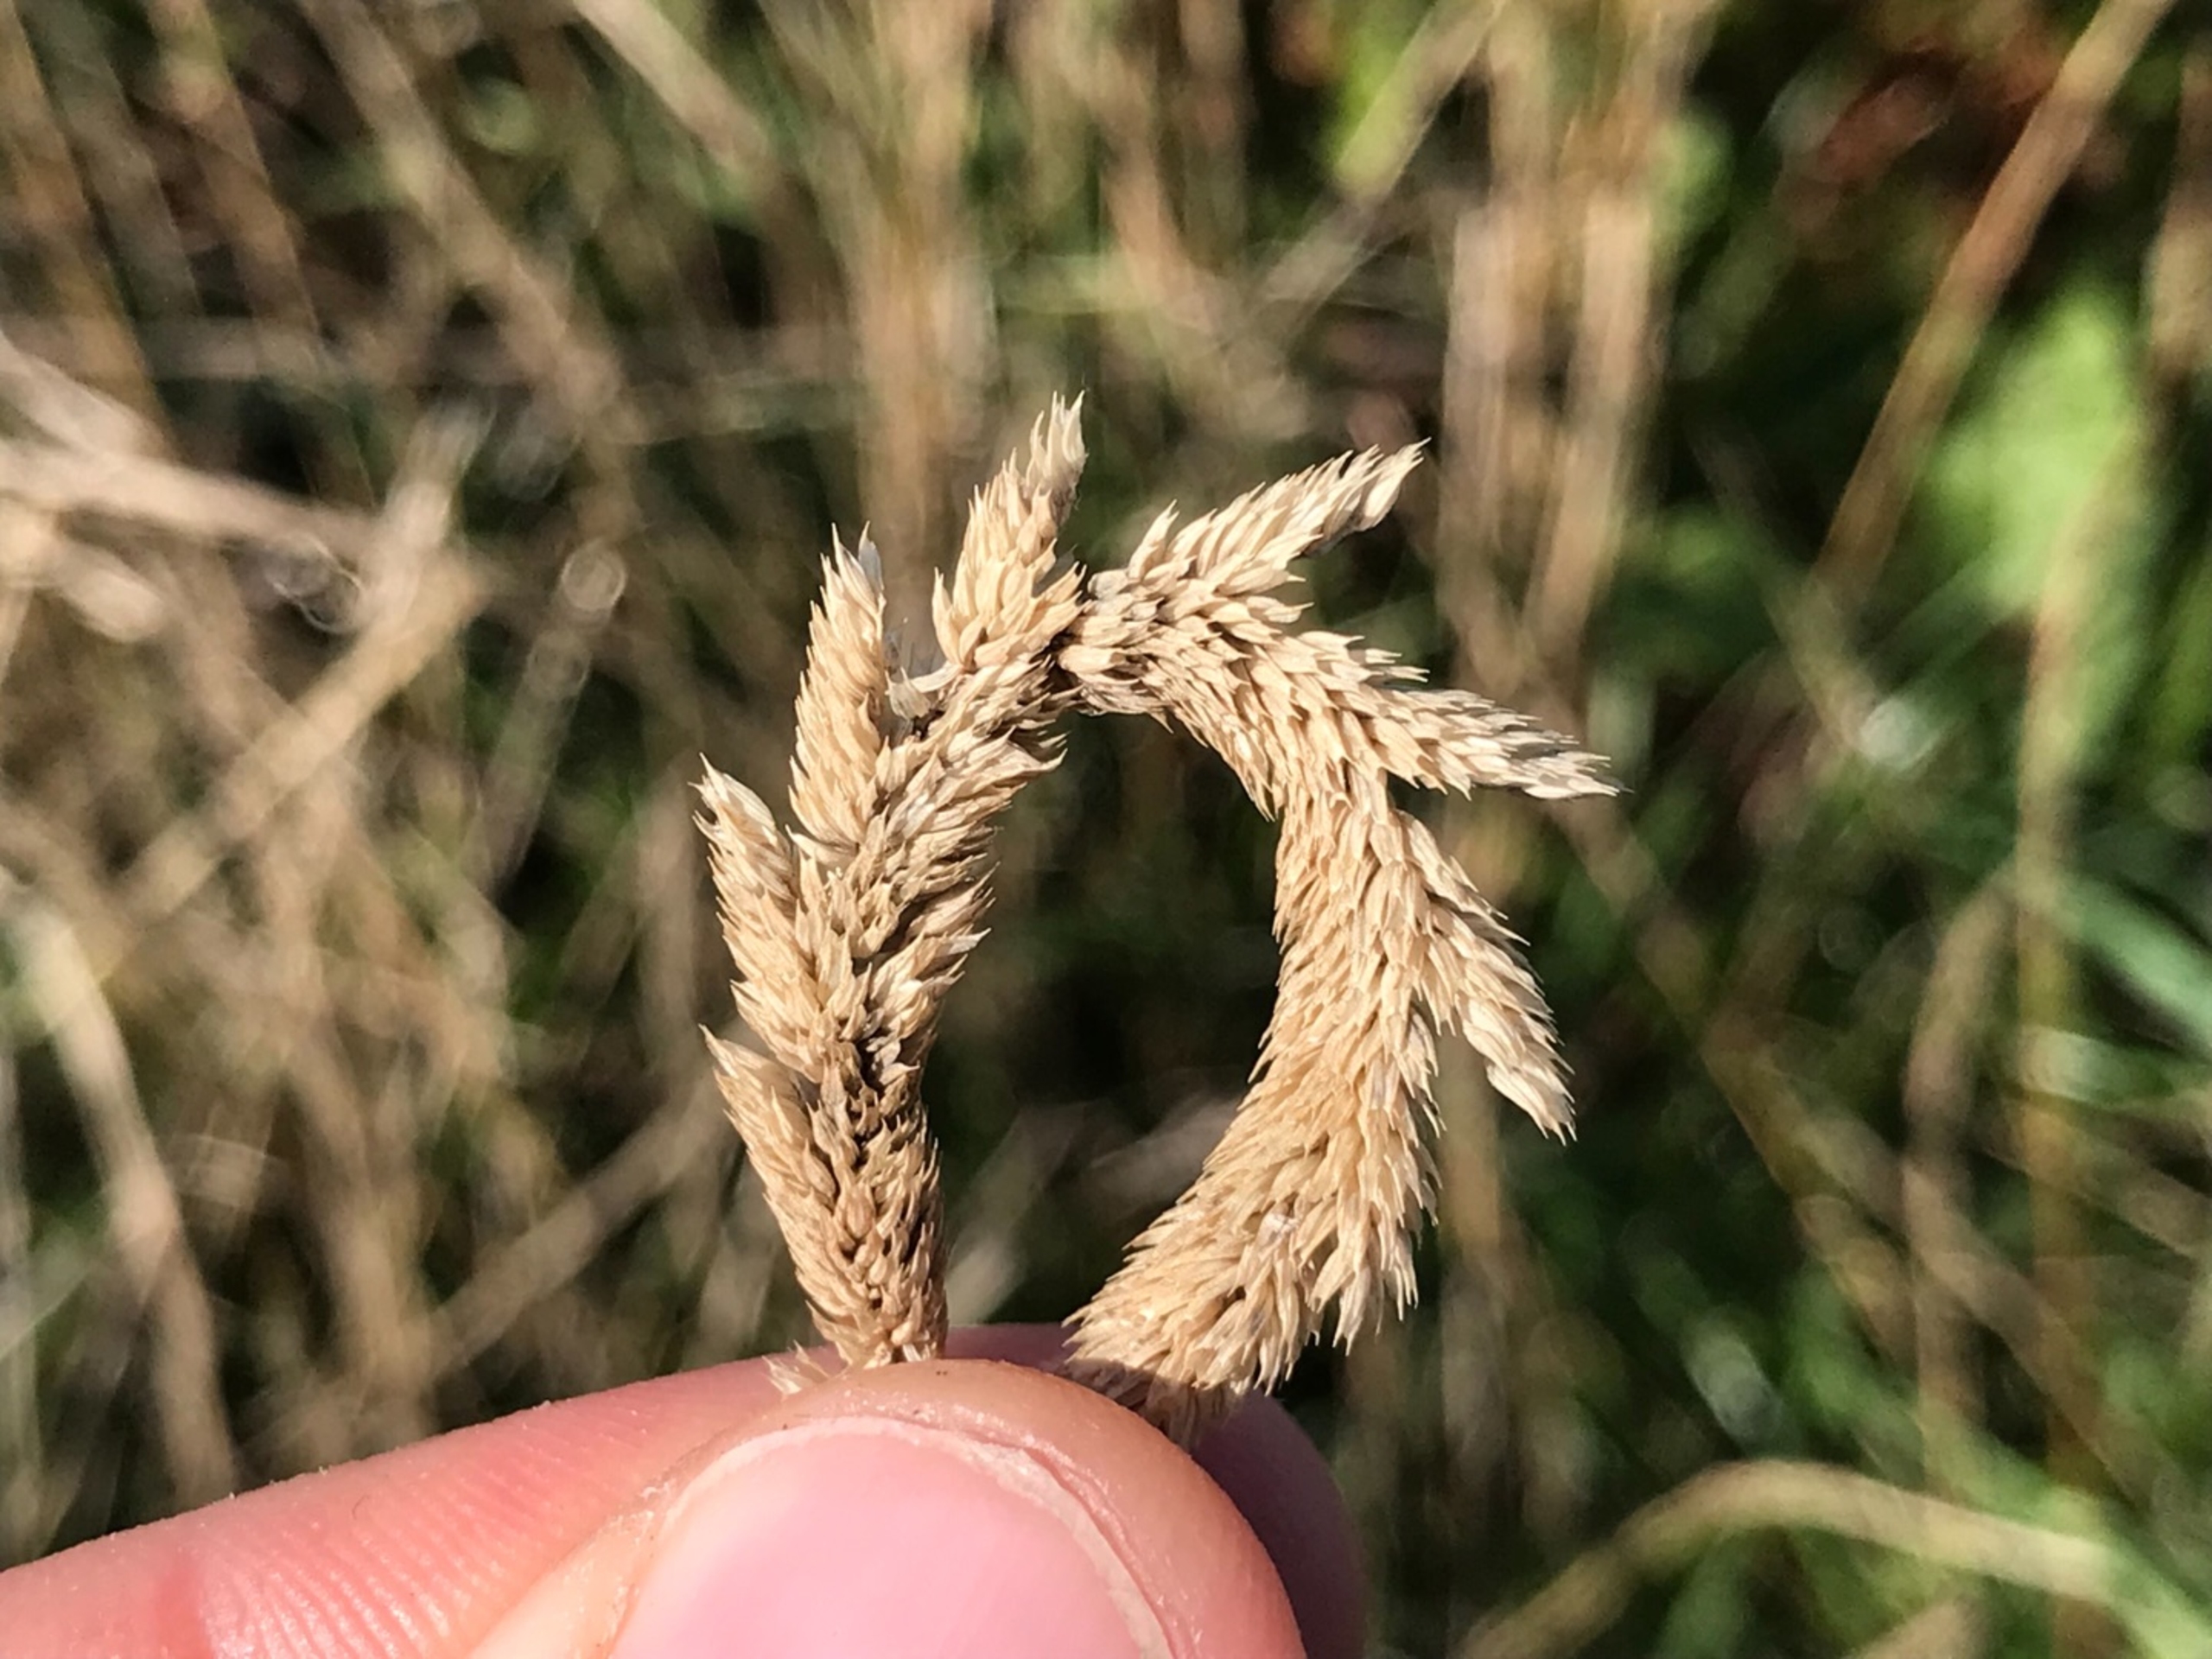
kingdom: Plantae
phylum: Tracheophyta
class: Liliopsida
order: Poales
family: Poaceae
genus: Phleum
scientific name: Phleum phleoides
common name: Glat rottehale
